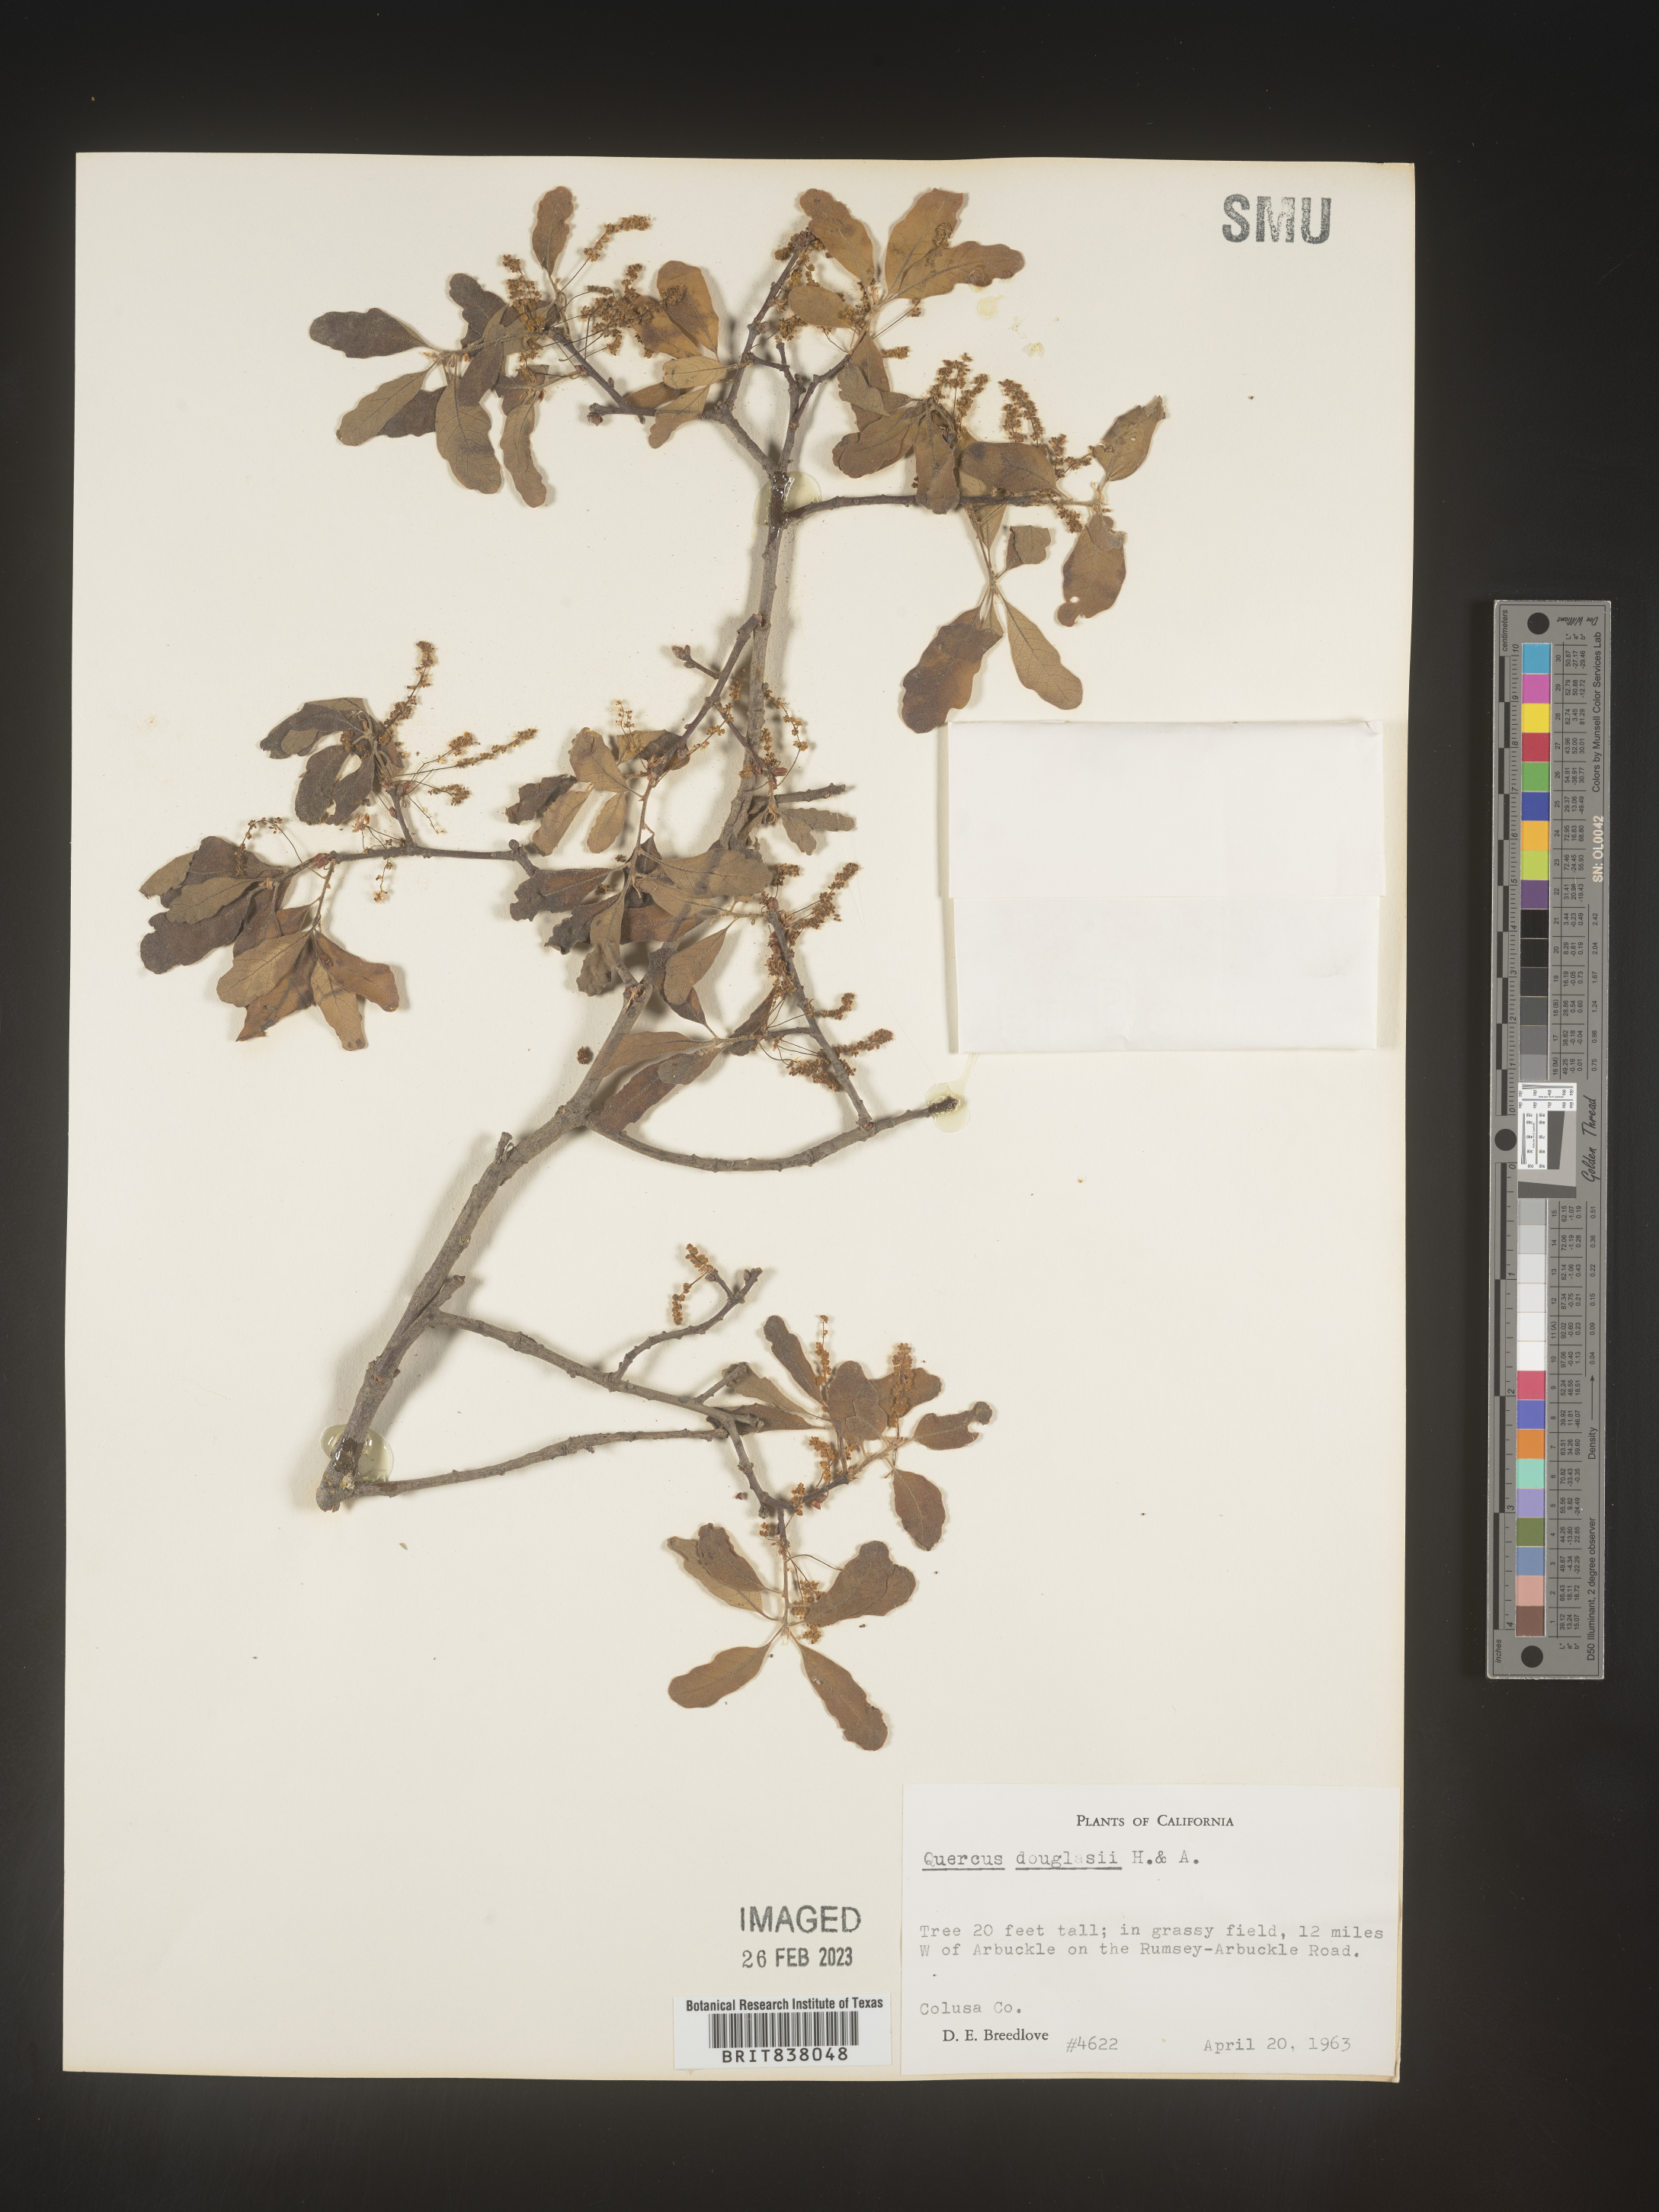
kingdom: Plantae
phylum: Tracheophyta
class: Magnoliopsida
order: Fagales
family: Fagaceae
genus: Quercus
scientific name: Quercus
